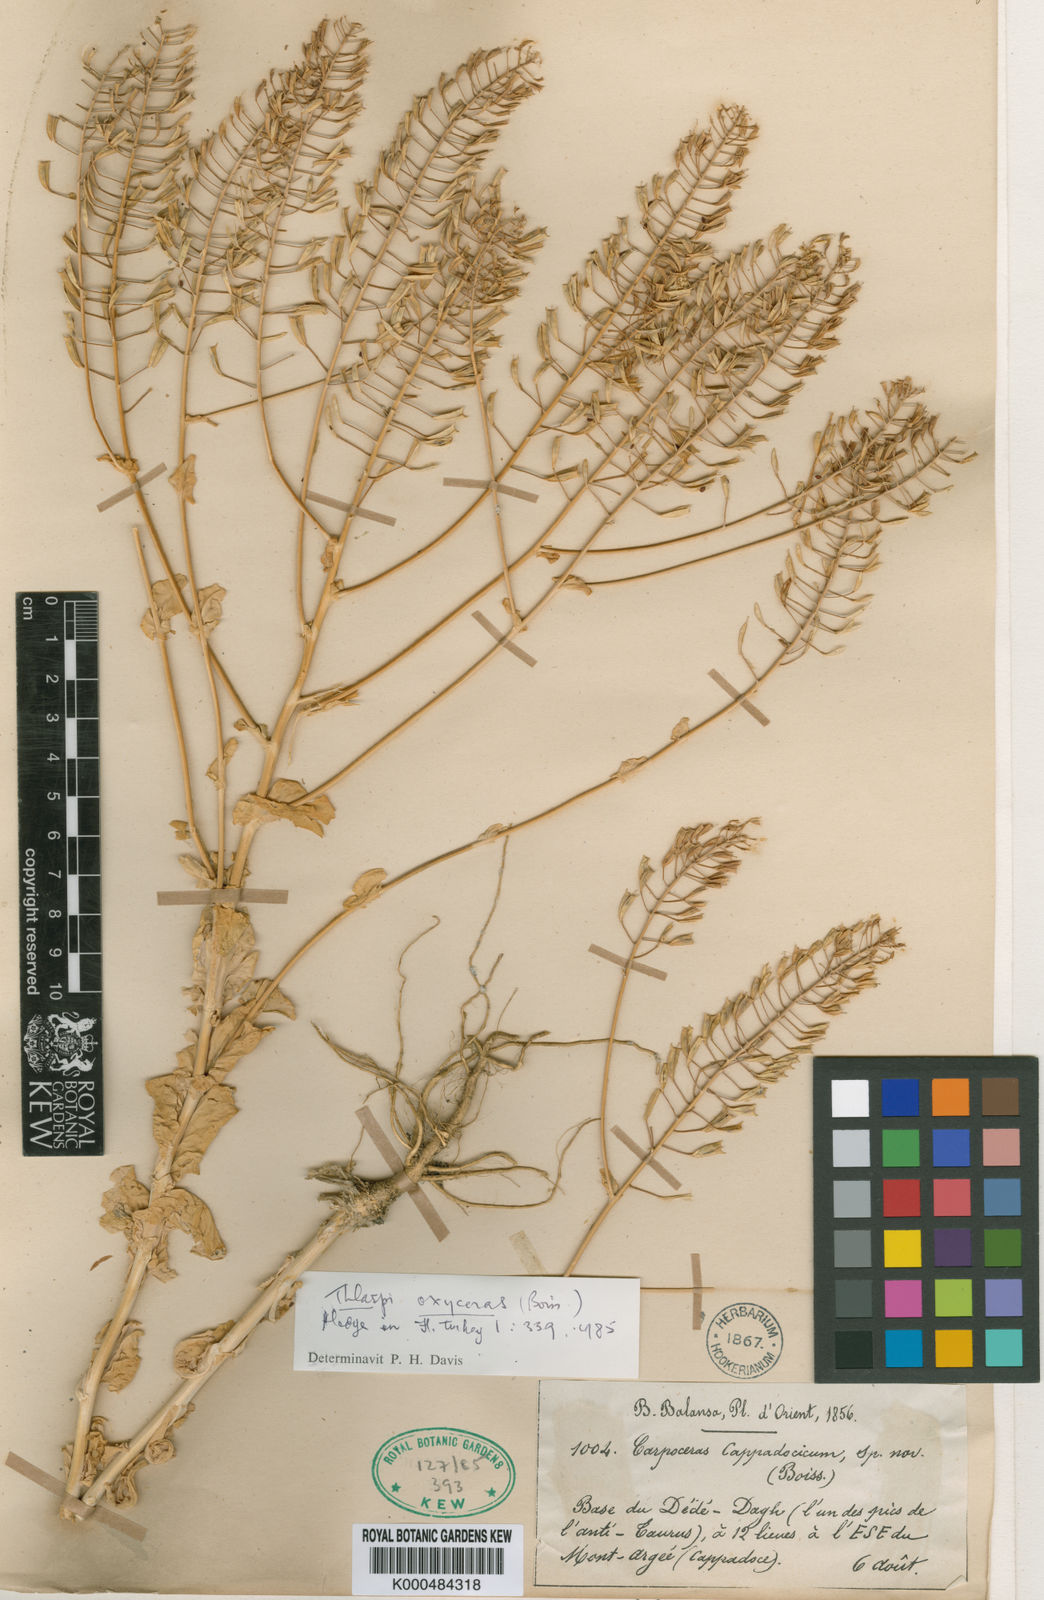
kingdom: Plantae
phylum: Tracheophyta
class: Magnoliopsida
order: Brassicales
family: Brassicaceae
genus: Noccaea
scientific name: Noccaea cappadocica
